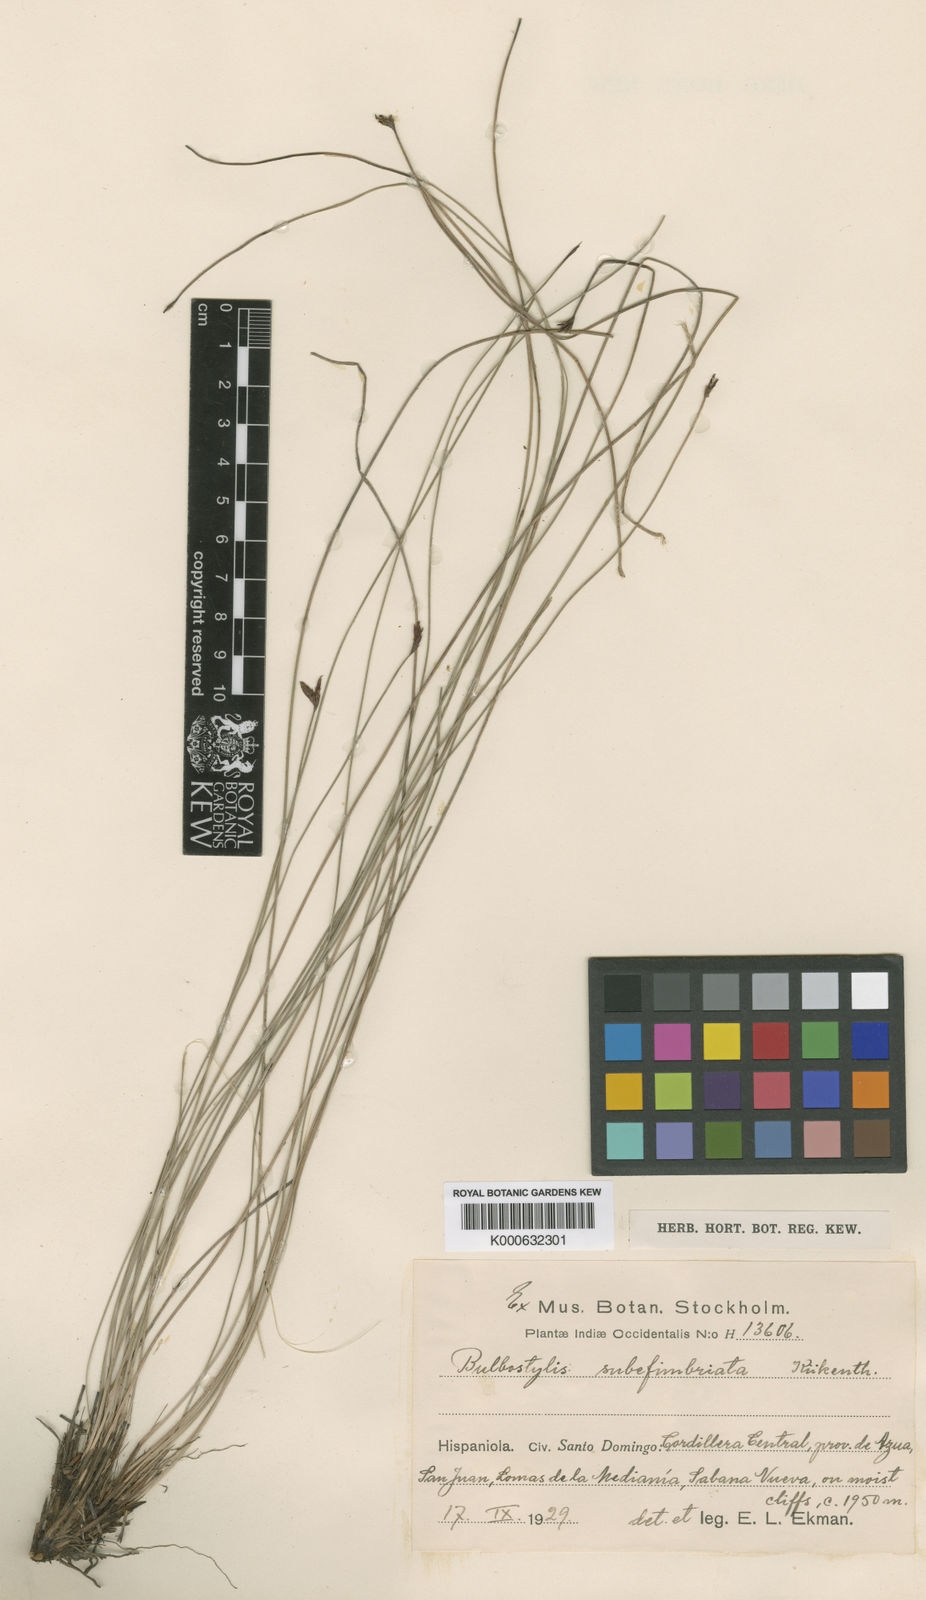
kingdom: Plantae
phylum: Tracheophyta
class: Liliopsida
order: Poales
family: Cyperaceae
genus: Bulbostylis
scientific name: Bulbostylis
